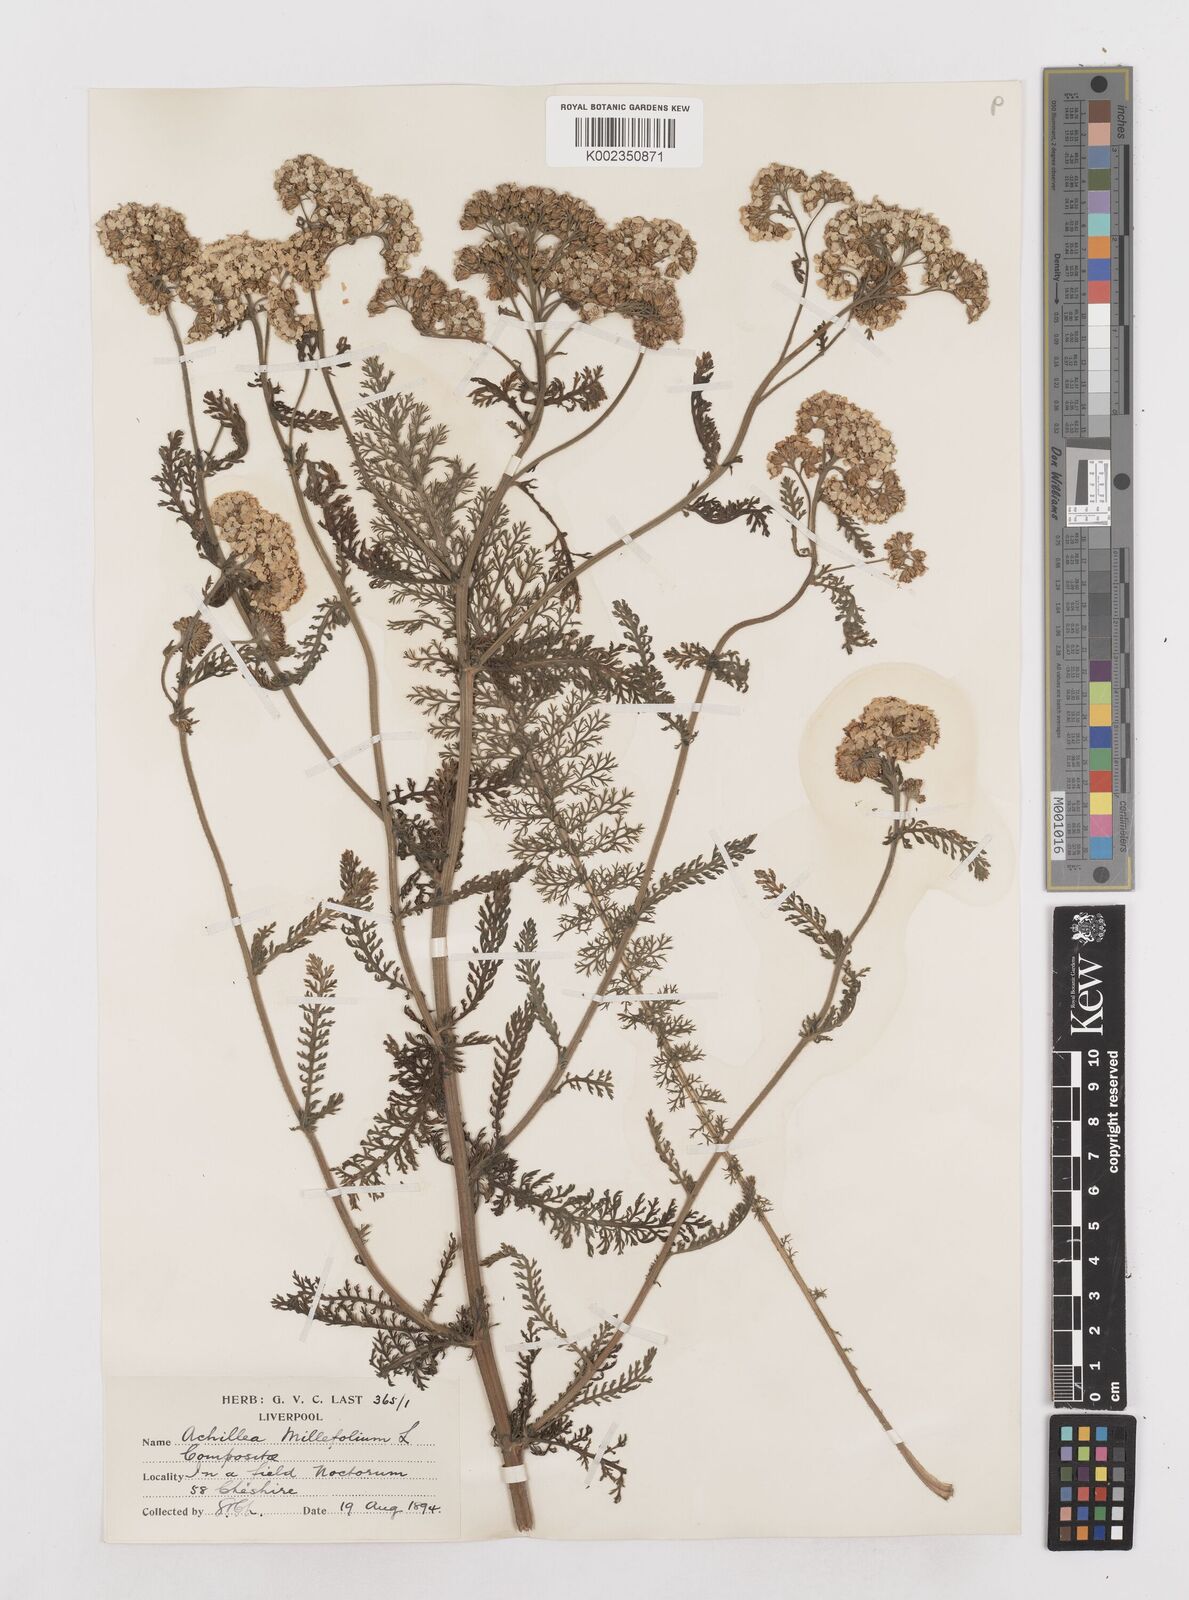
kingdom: Plantae
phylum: Tracheophyta
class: Magnoliopsida
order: Asterales
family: Asteraceae
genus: Achillea
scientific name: Achillea millefolium
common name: Yarrow
